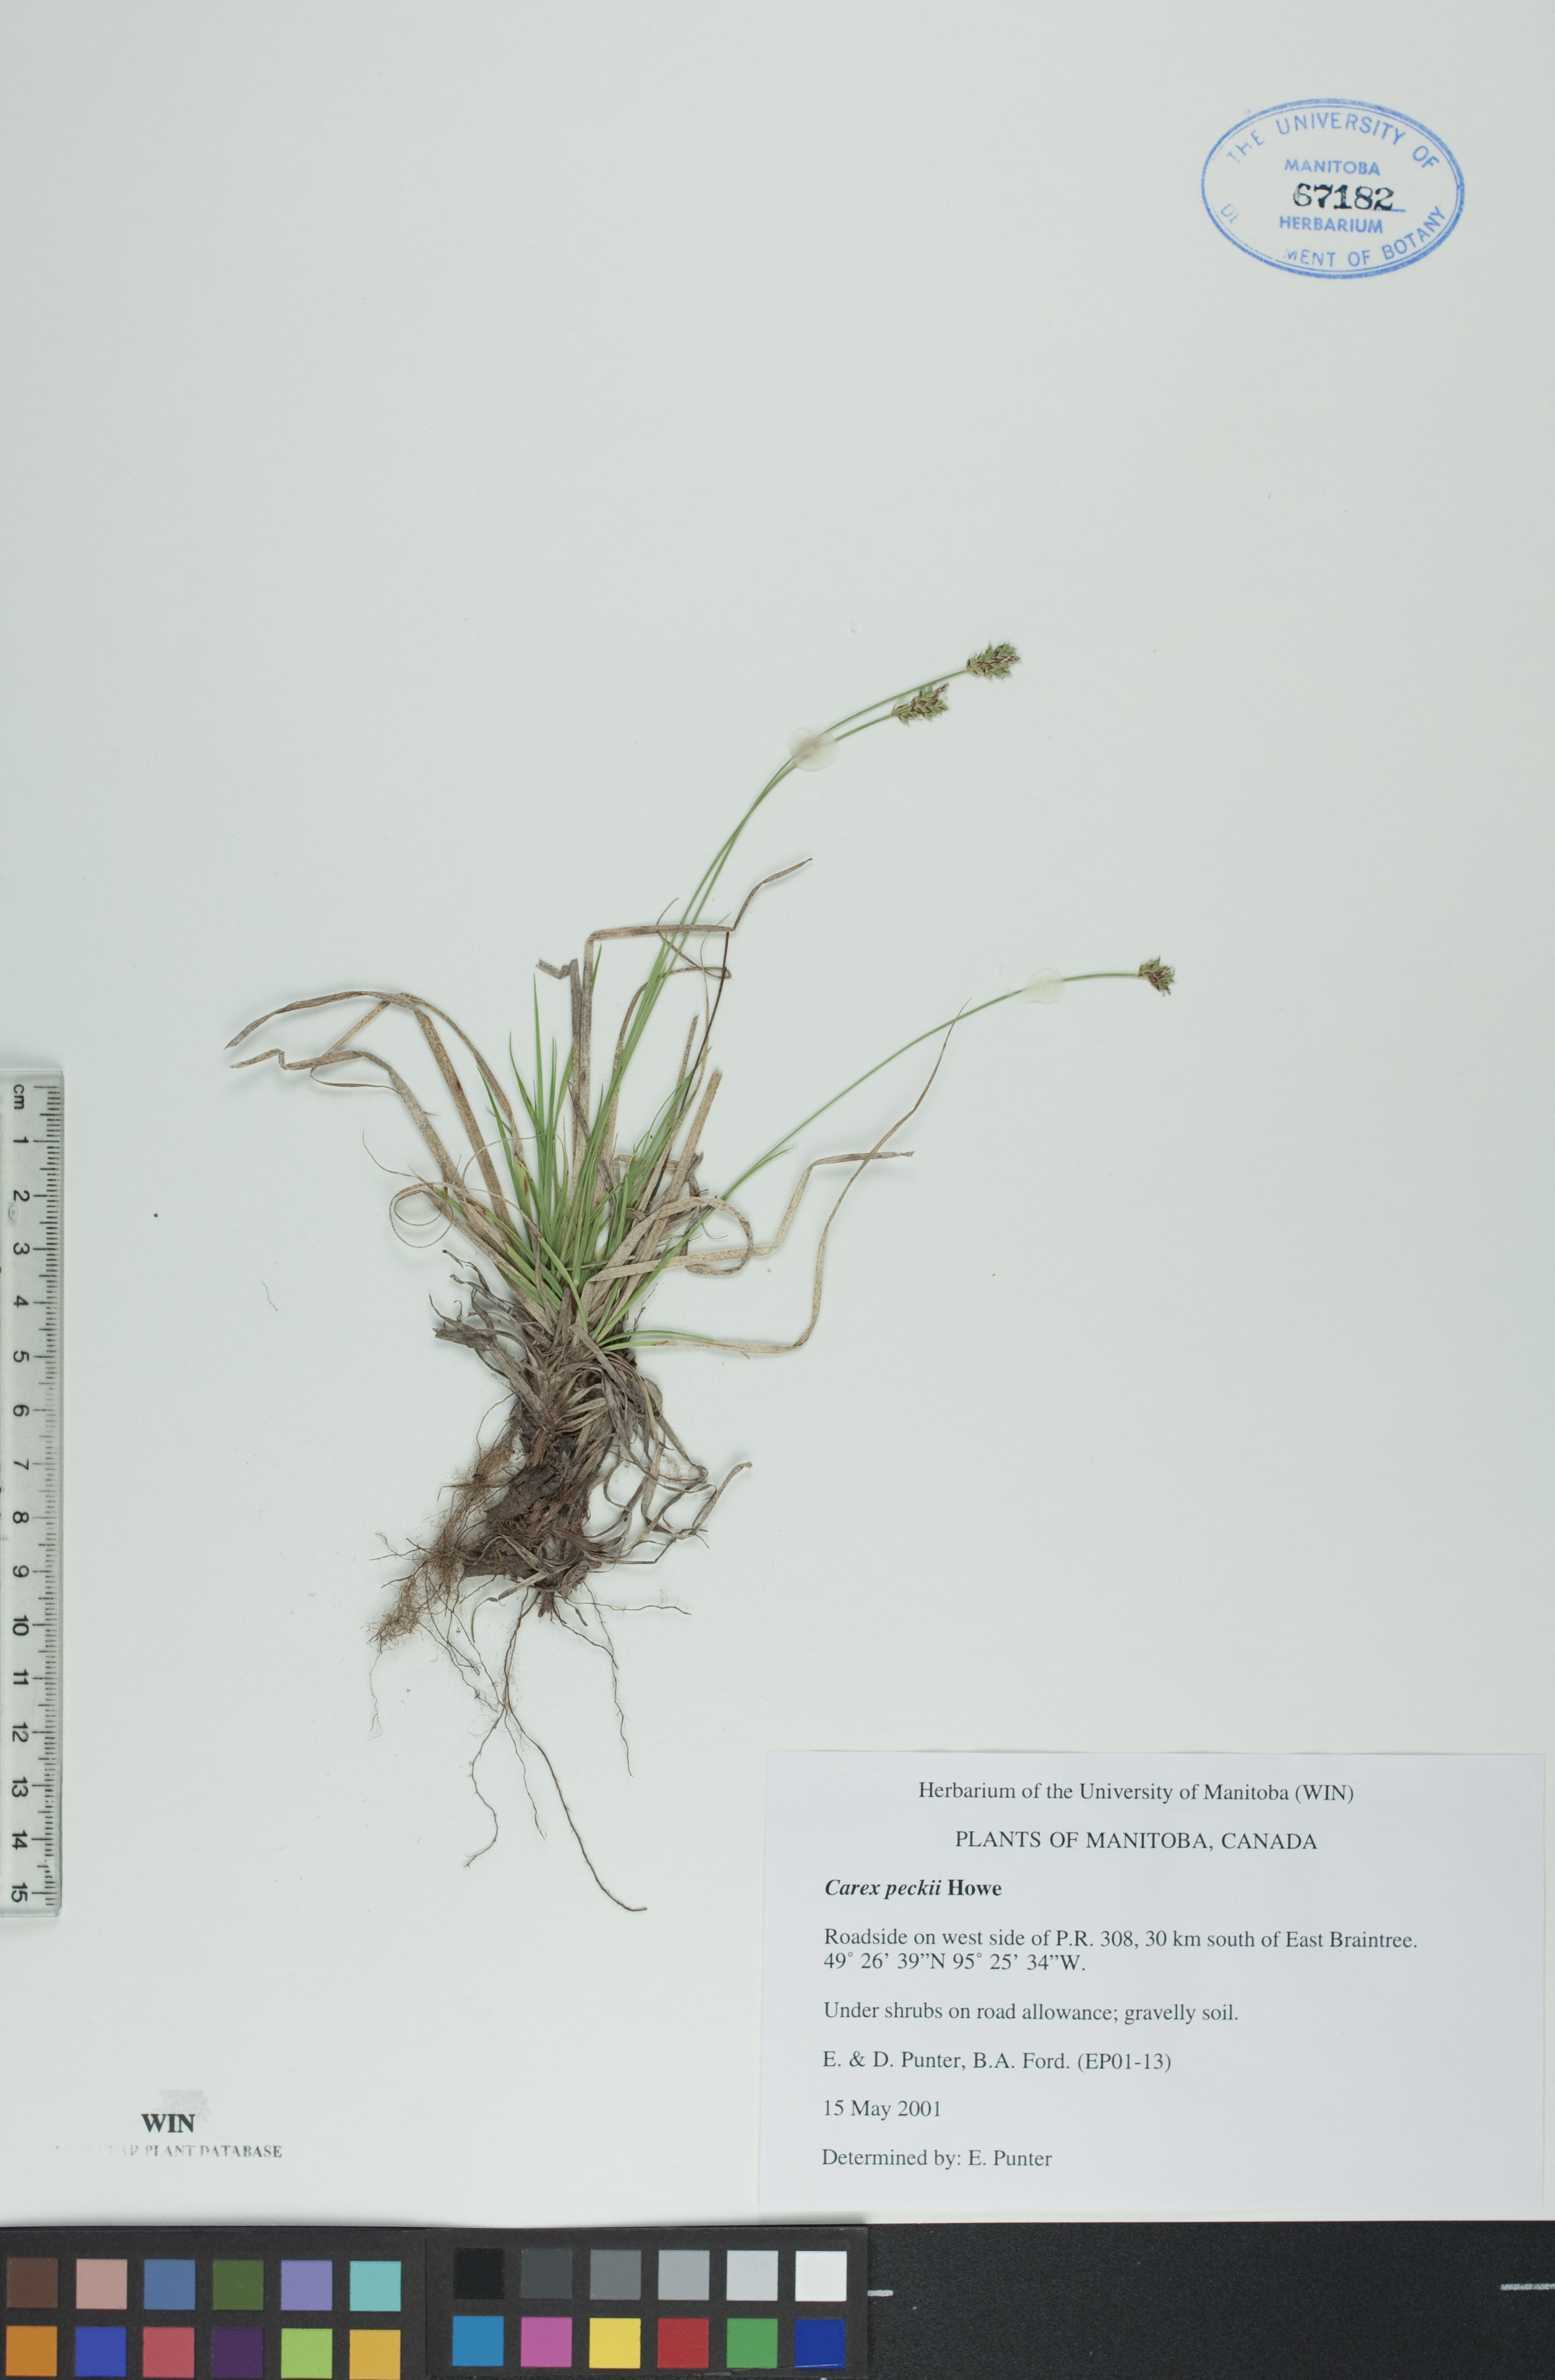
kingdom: Plantae
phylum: Tracheophyta
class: Liliopsida
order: Poales
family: Cyperaceae
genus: Carex
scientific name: Carex peckii
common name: Peck's oak sedge
